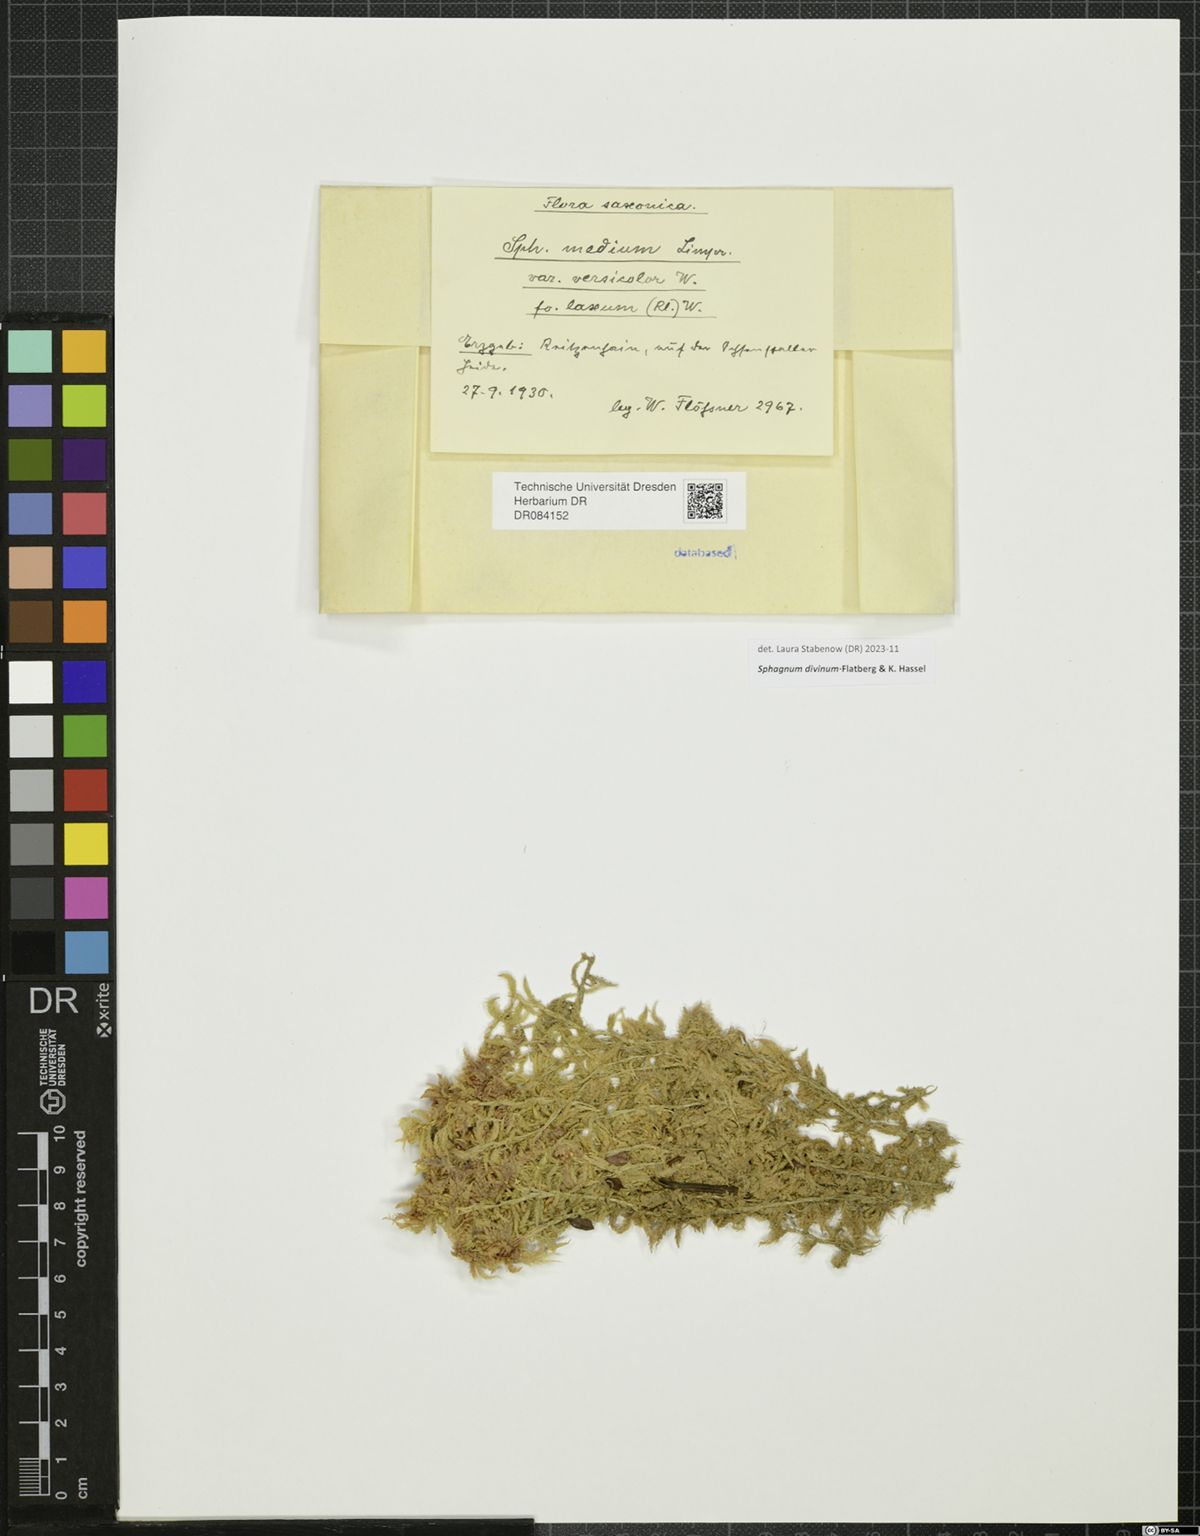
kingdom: Plantae
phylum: Bryophyta
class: Sphagnopsida
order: Sphagnales
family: Sphagnaceae
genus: Sphagnum
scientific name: Sphagnum divinum
